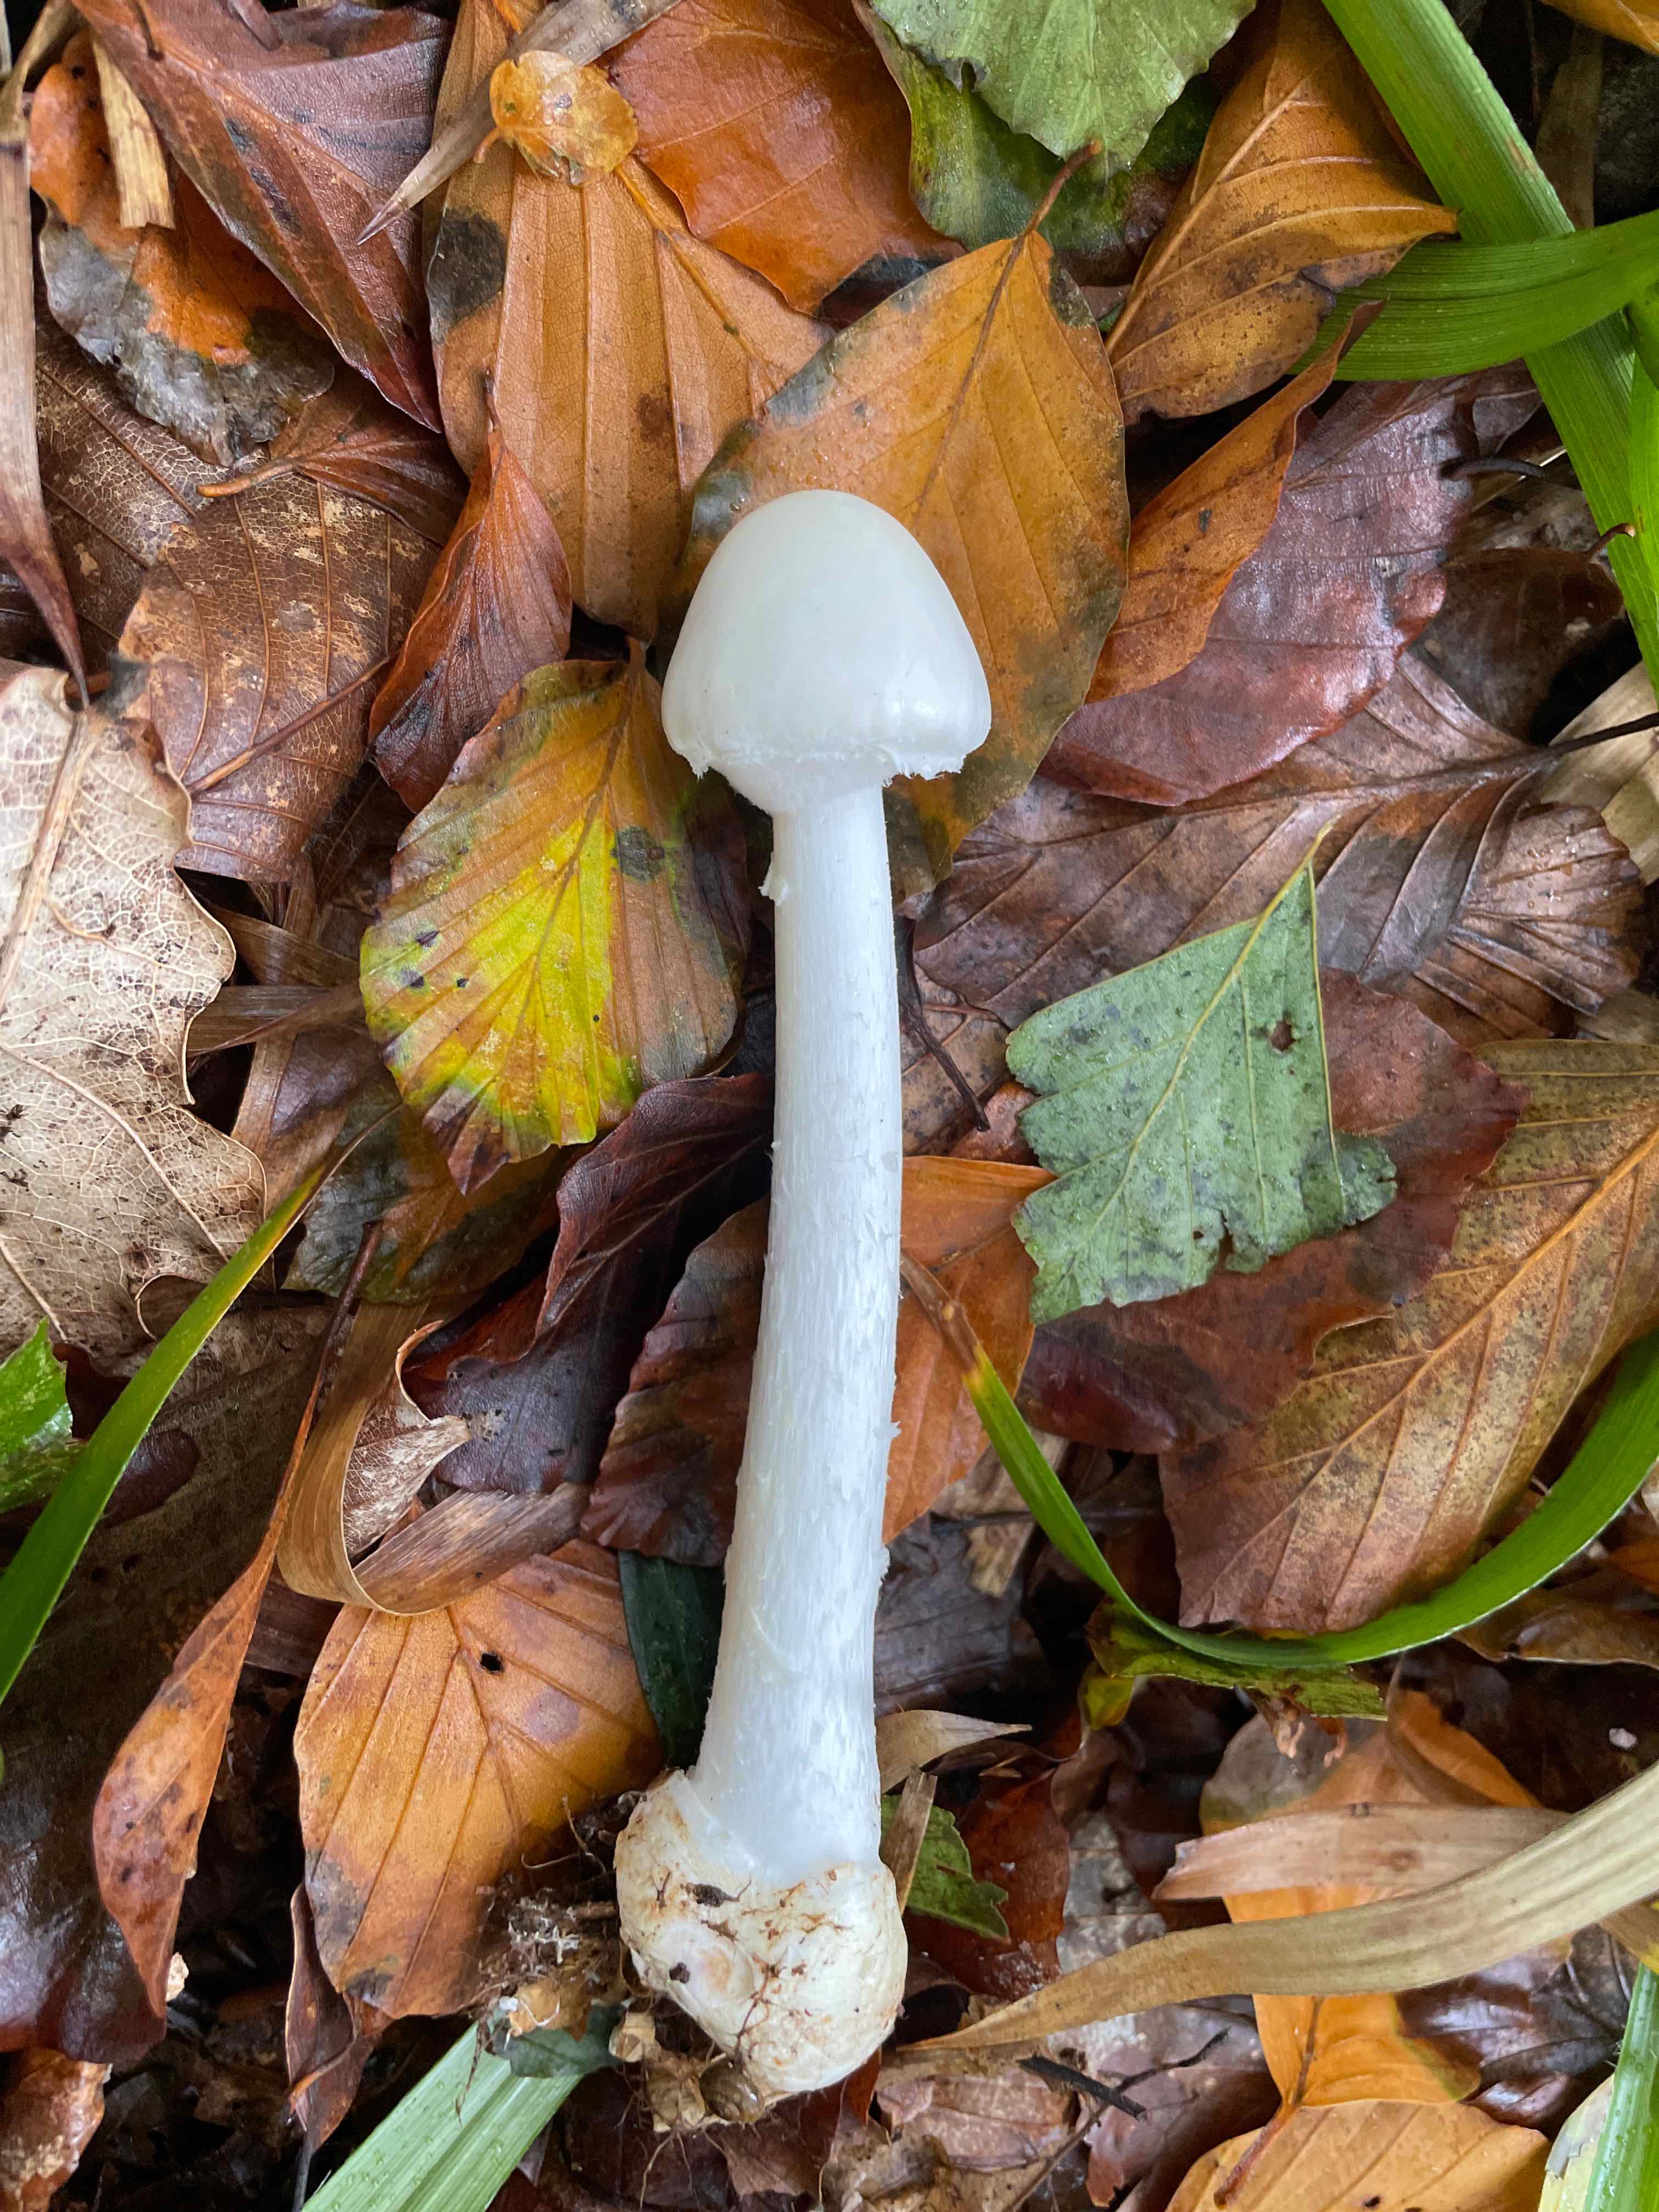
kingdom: Fungi
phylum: Basidiomycota
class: Agaricomycetes
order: Agaricales
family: Amanitaceae
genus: Amanita
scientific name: Amanita virosa
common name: snehvid fluesvamp
